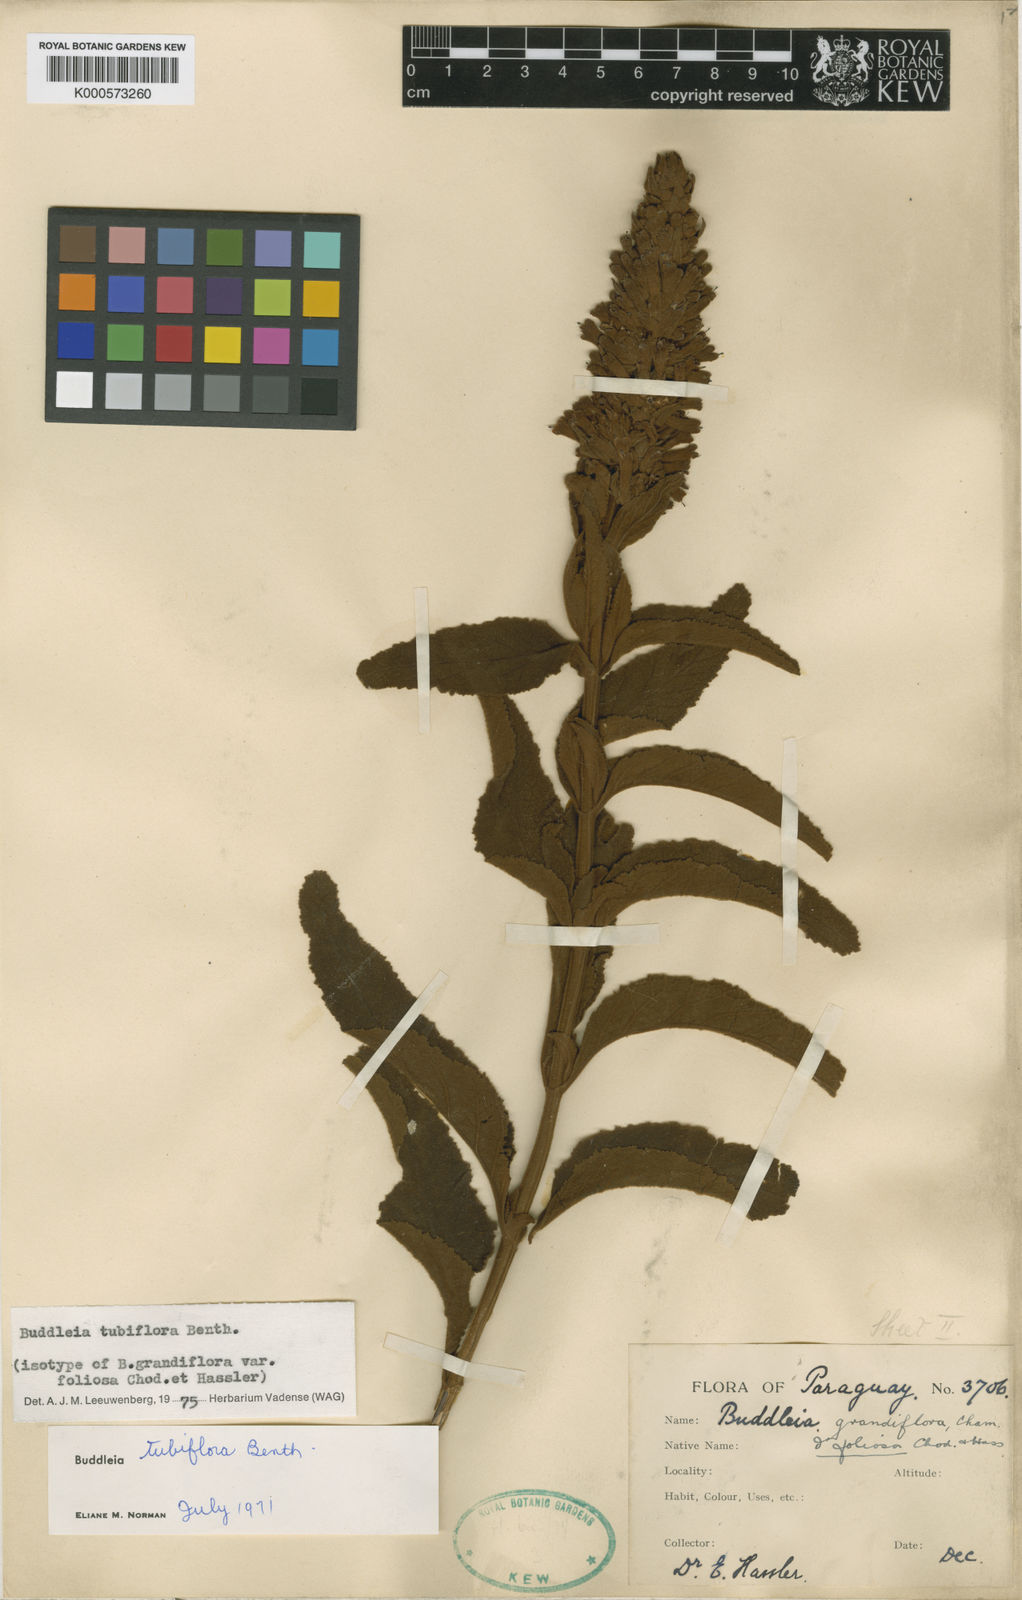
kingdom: Plantae
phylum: Tracheophyta
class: Magnoliopsida
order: Lamiales
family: Scrophulariaceae
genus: Buddleja
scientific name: Buddleja tubiflora
